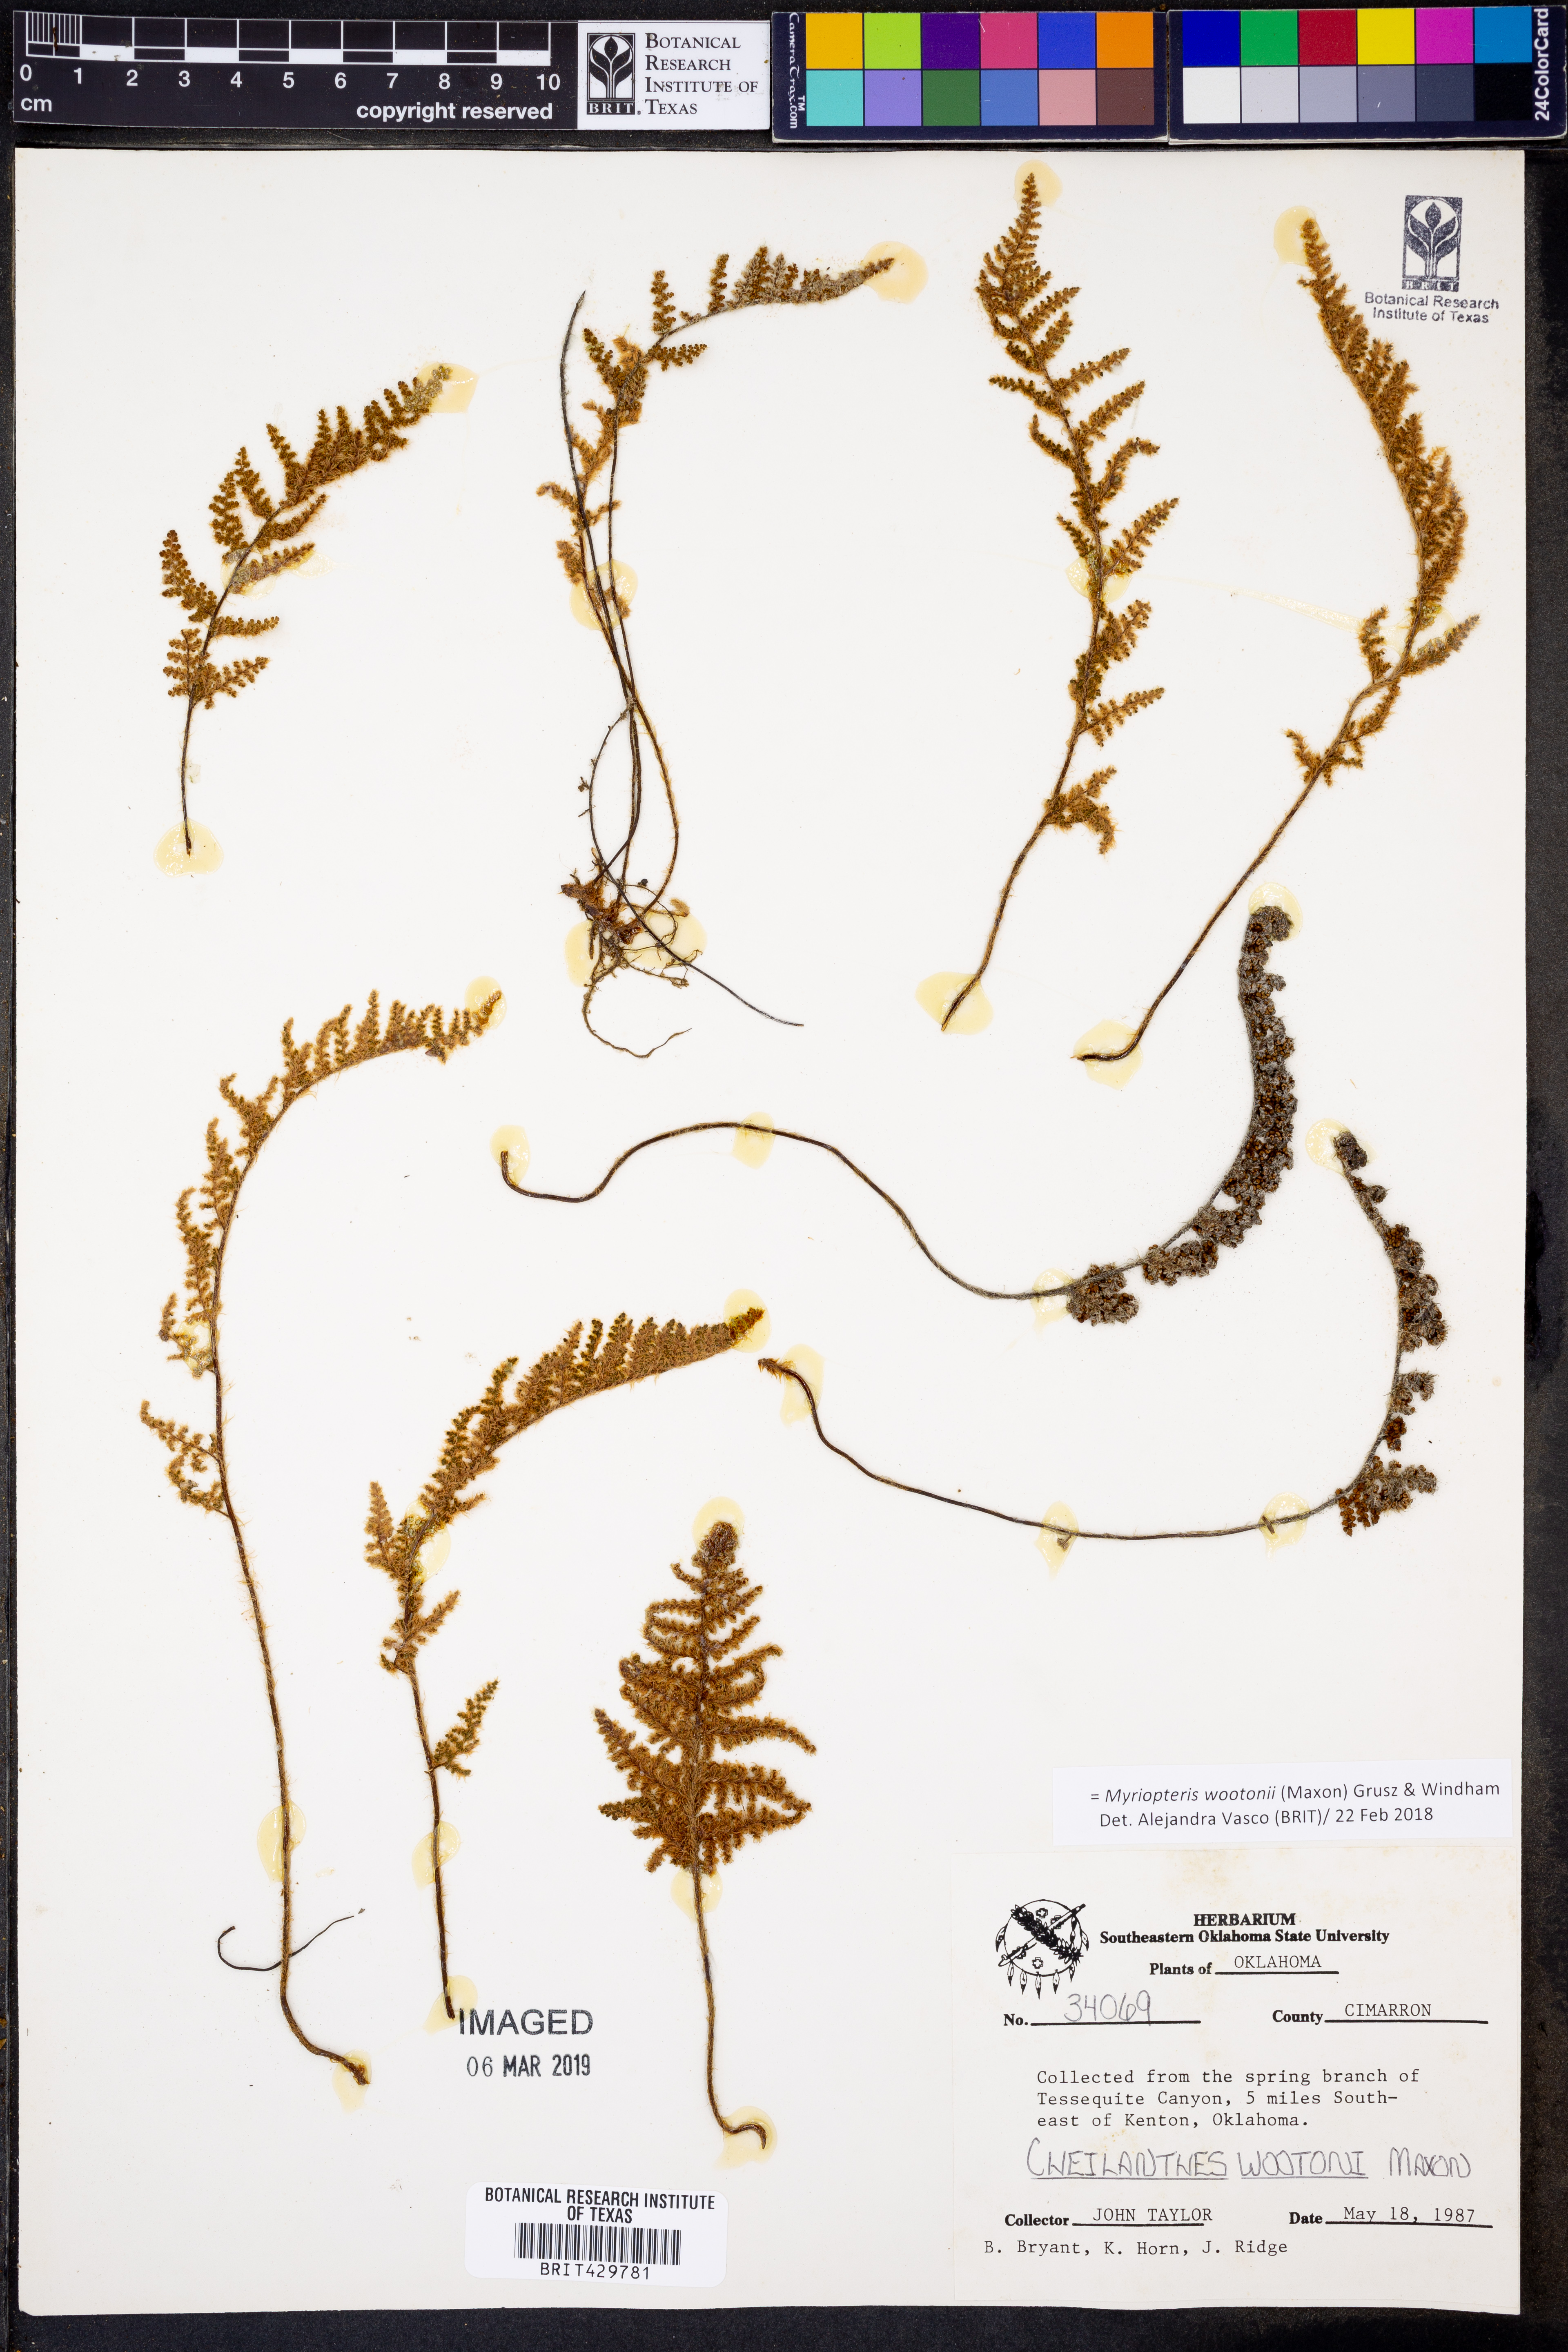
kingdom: Plantae
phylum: Tracheophyta
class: Polypodiopsida
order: Polypodiales
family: Pteridaceae
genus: Myriopteris
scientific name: Myriopteris wootonii
